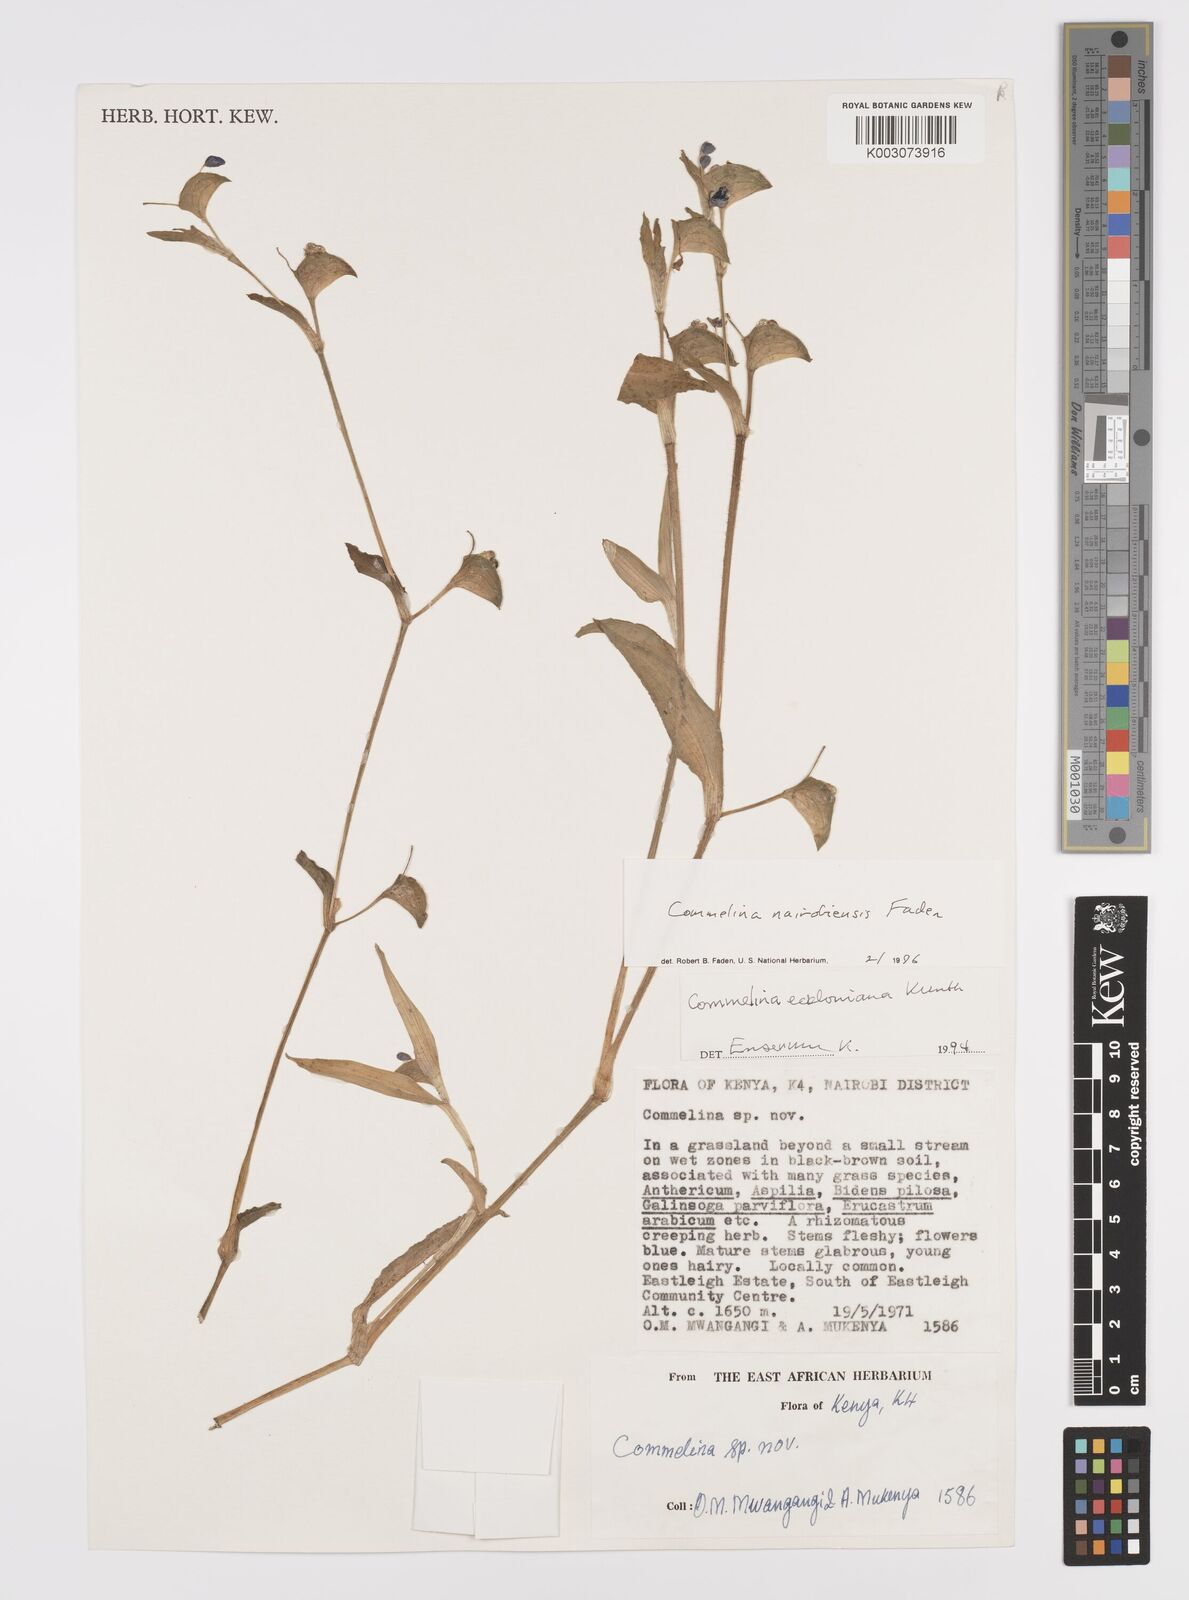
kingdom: Plantae
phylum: Tracheophyta
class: Liliopsida
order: Commelinales
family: Commelinaceae
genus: Commelina
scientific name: Commelina eckloniana
